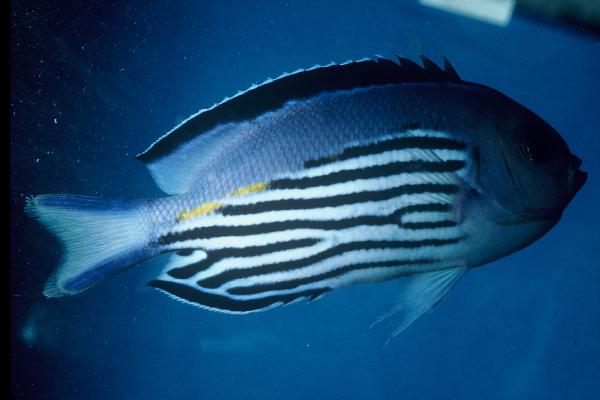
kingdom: Animalia
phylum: Chordata
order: Perciformes
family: Pomacanthidae
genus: Genicanthus
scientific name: Genicanthus watanabei
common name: Watanabe's angelfish
